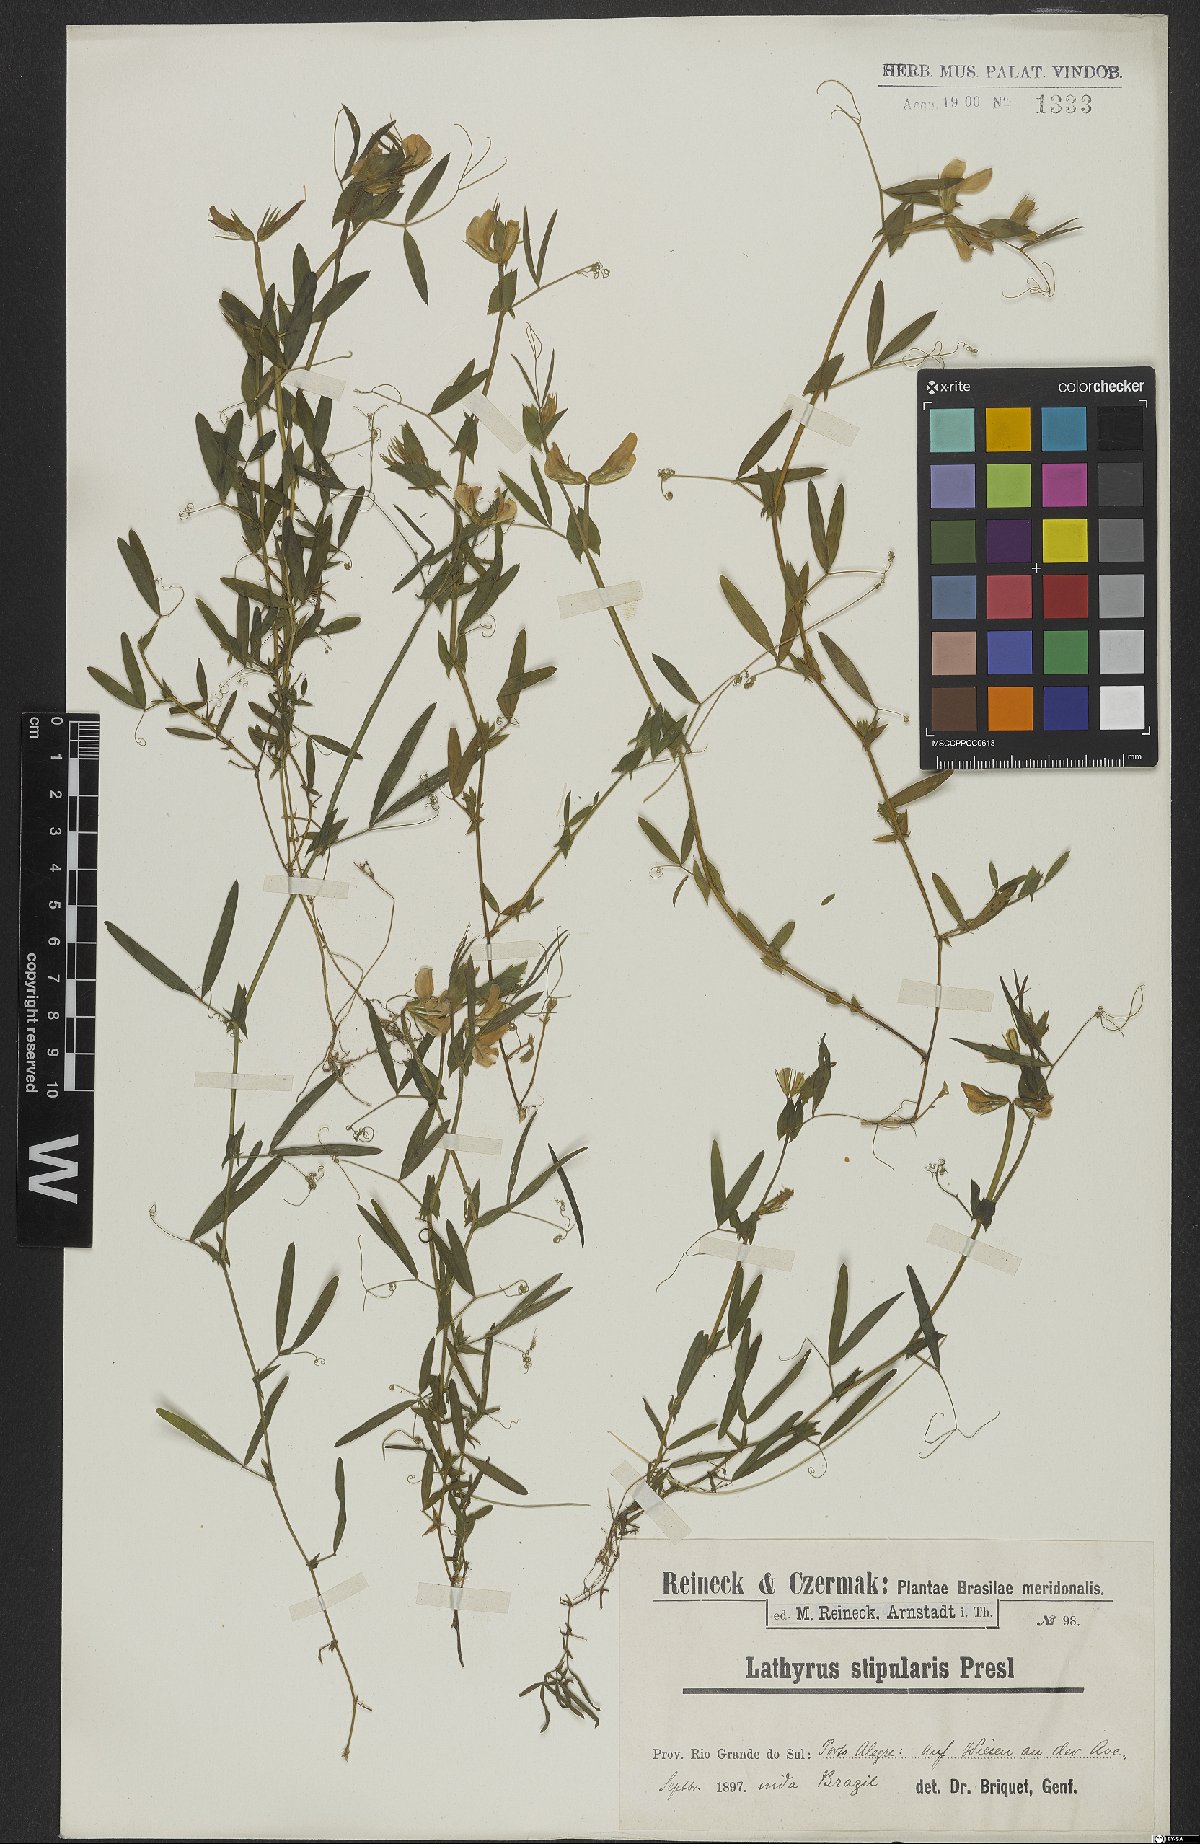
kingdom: Plantae
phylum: Tracheophyta
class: Magnoliopsida
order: Fabales
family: Fabaceae
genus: Lathyrus
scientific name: Lathyrus crassipes
